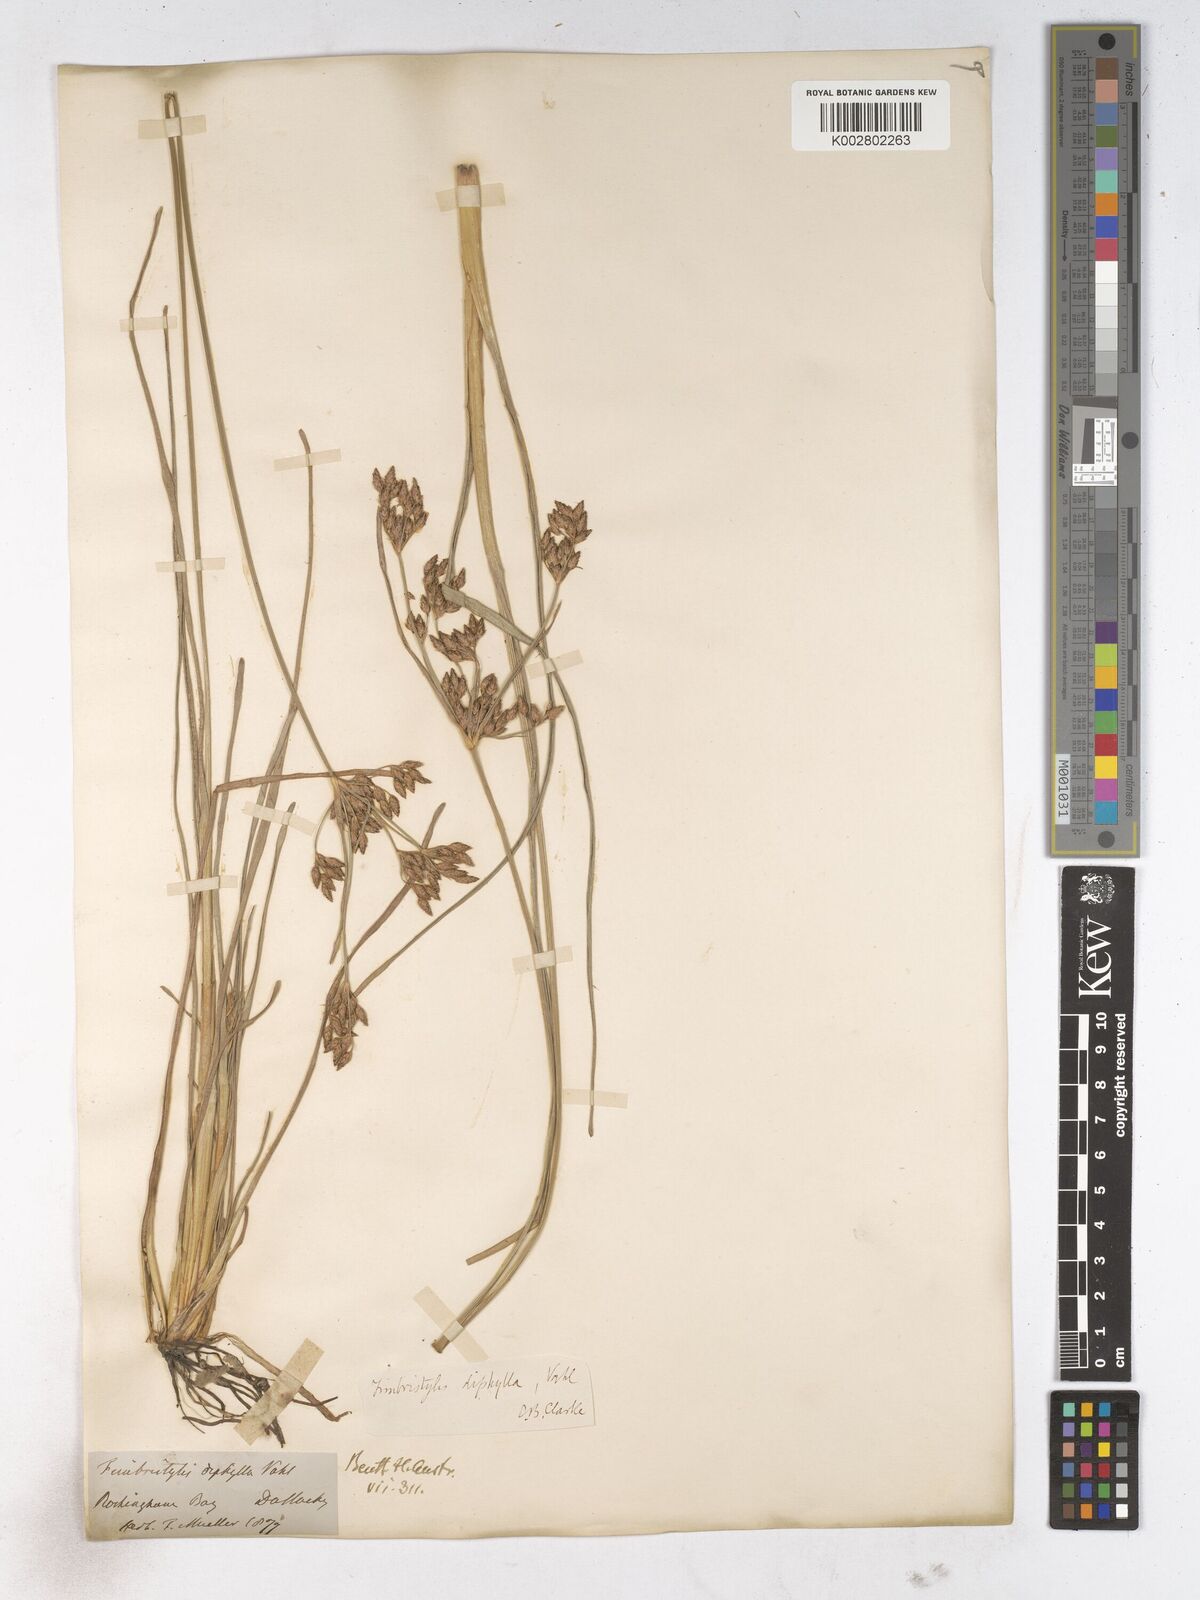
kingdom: Plantae
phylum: Tracheophyta
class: Liliopsida
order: Poales
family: Cyperaceae
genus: Fimbristylis
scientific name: Fimbristylis dichotoma
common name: Forked fimbry
